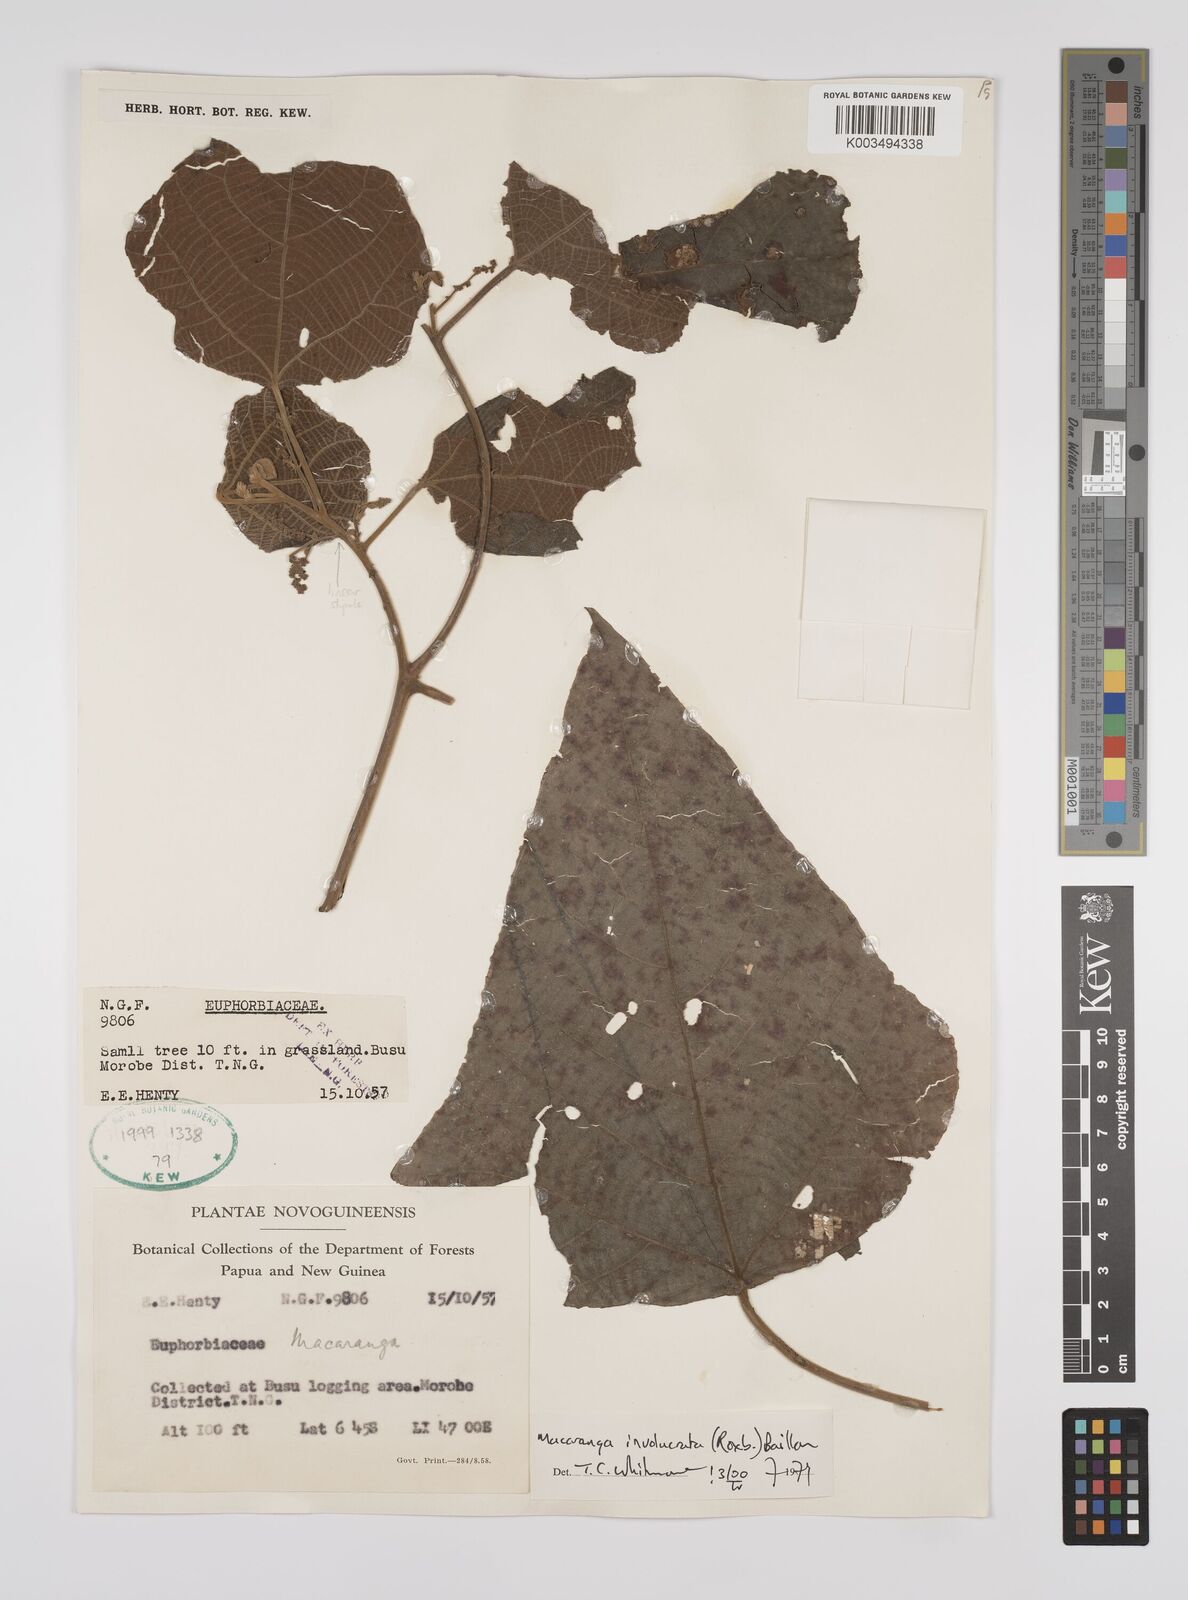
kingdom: Plantae
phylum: Tracheophyta
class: Magnoliopsida
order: Malpighiales
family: Euphorbiaceae
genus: Macaranga
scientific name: Macaranga involucrata
